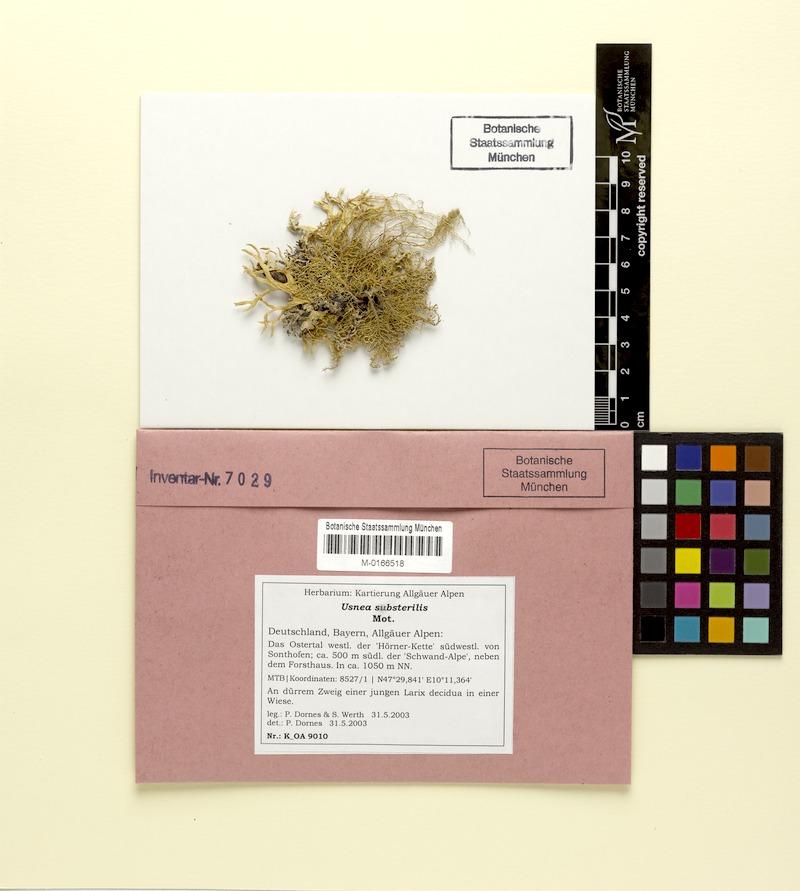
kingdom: Fungi
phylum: Ascomycota
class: Lecanoromycetes
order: Lecanorales
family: Parmeliaceae
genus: Usnea
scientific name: Usnea substerilis
